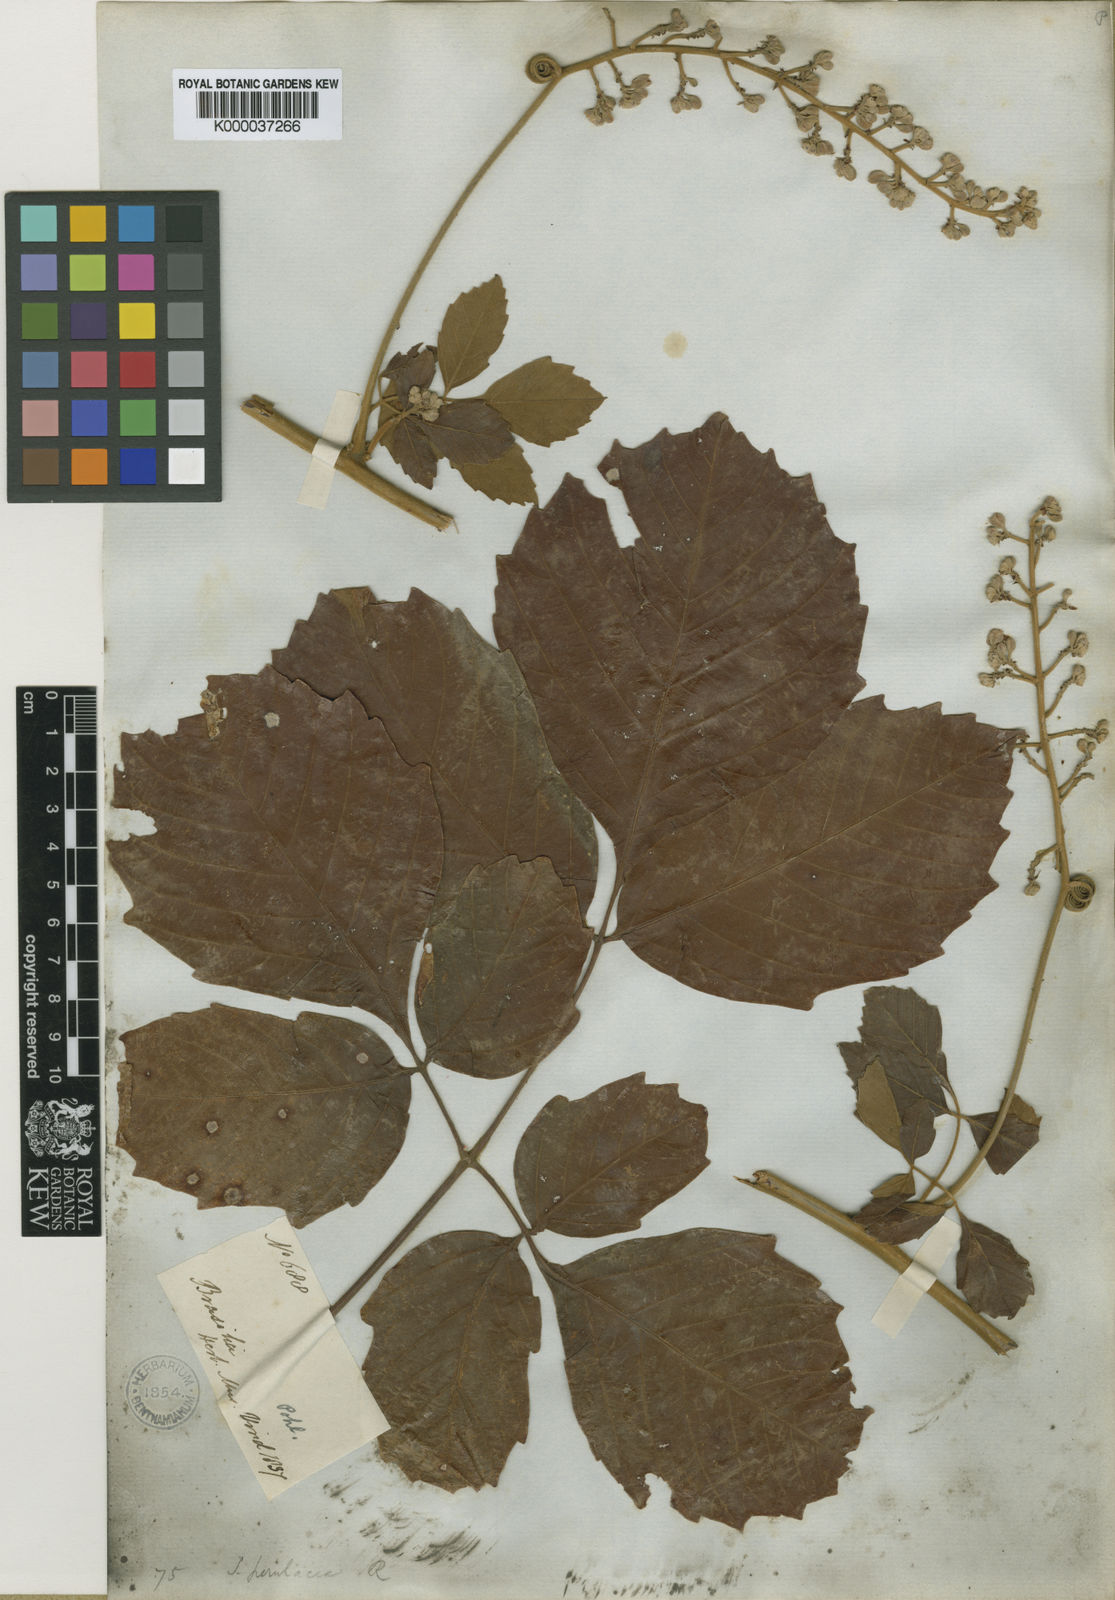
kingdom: Plantae
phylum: Tracheophyta
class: Magnoliopsida
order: Sapindales
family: Sapindaceae
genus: Serjania
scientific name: Serjania perulacea
